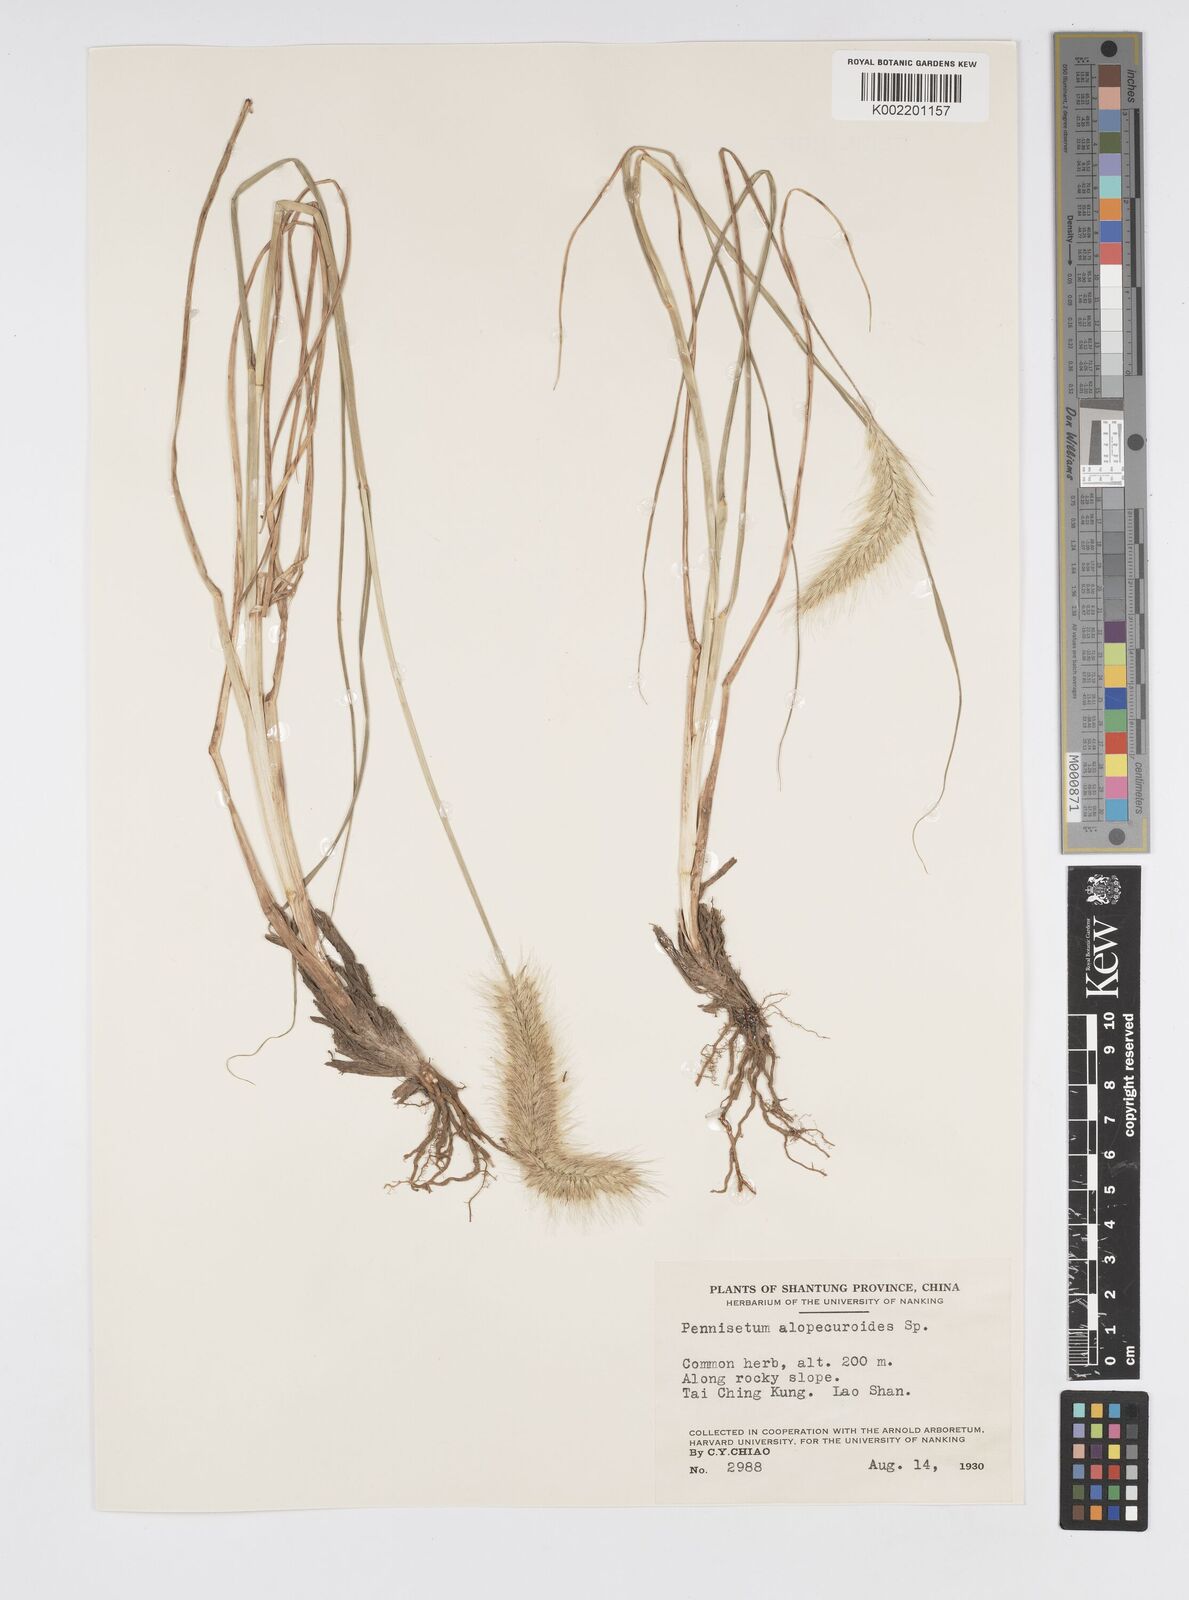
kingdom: Plantae
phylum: Tracheophyta
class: Liliopsida
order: Poales
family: Poaceae
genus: Cenchrus
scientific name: Cenchrus alopecuroides
